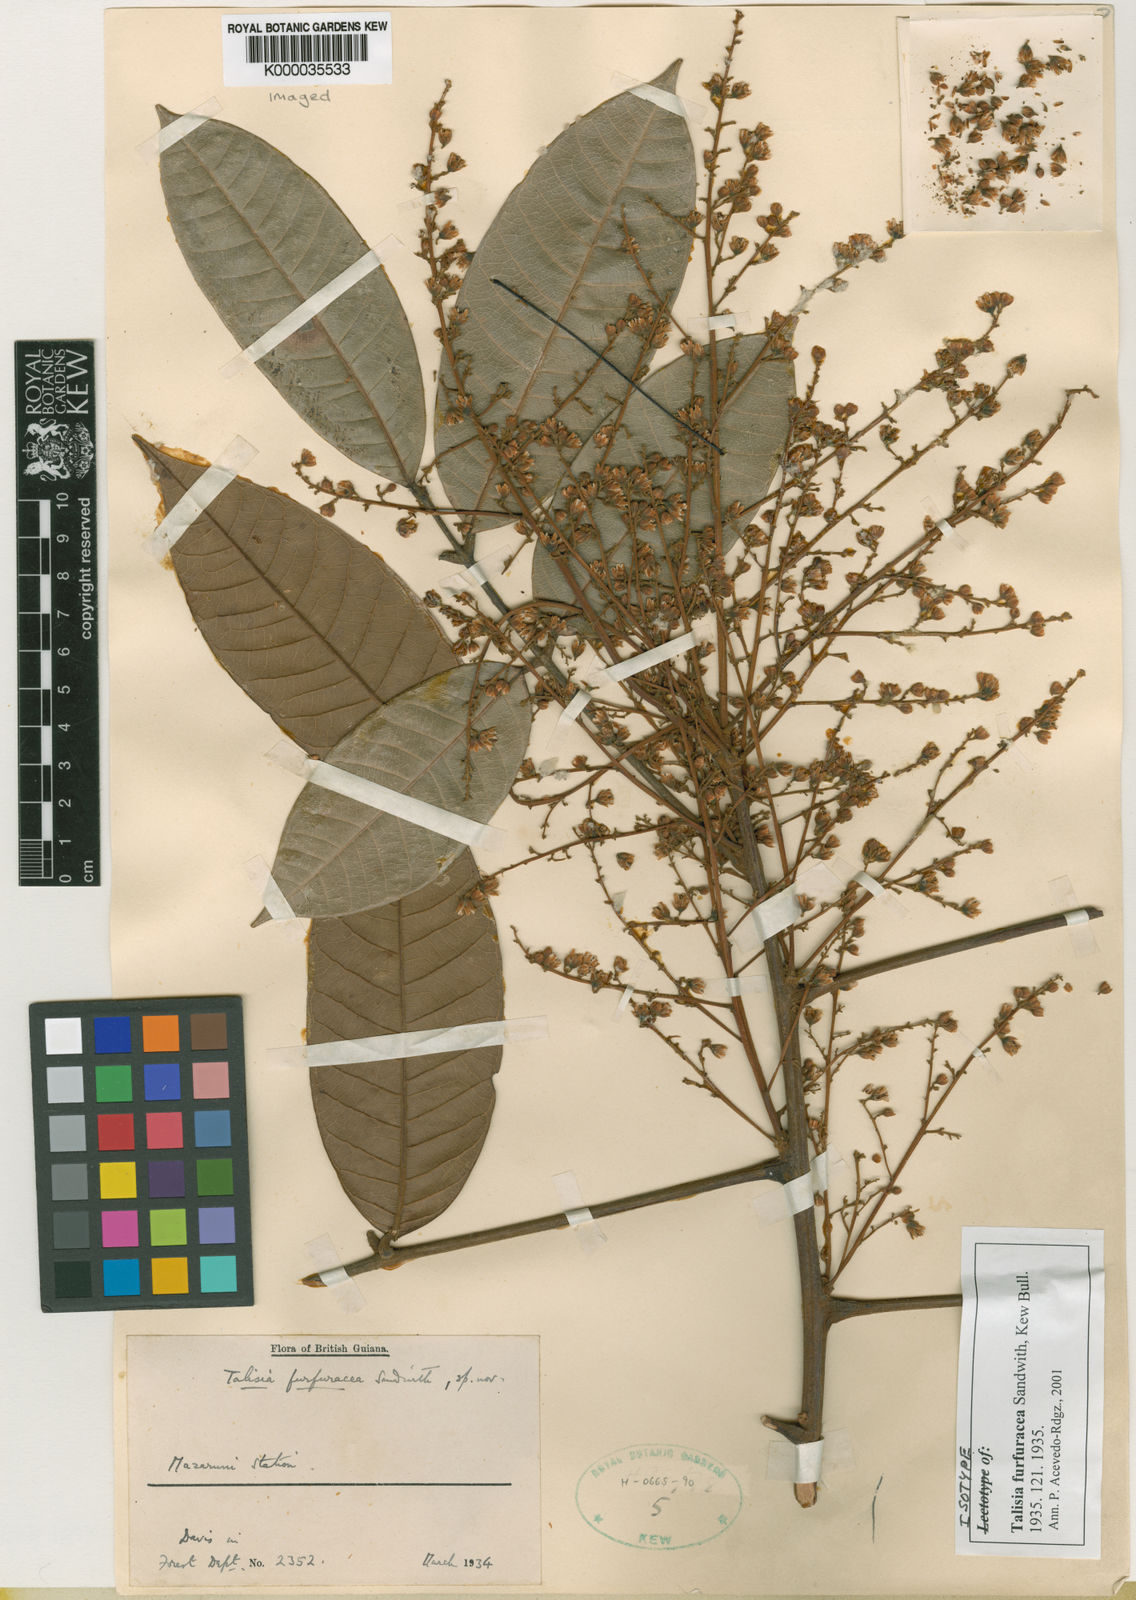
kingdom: Plantae
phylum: Tracheophyta
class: Magnoliopsida
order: Sapindales
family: Sapindaceae
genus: Talisia
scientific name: Talisia furfuracea
